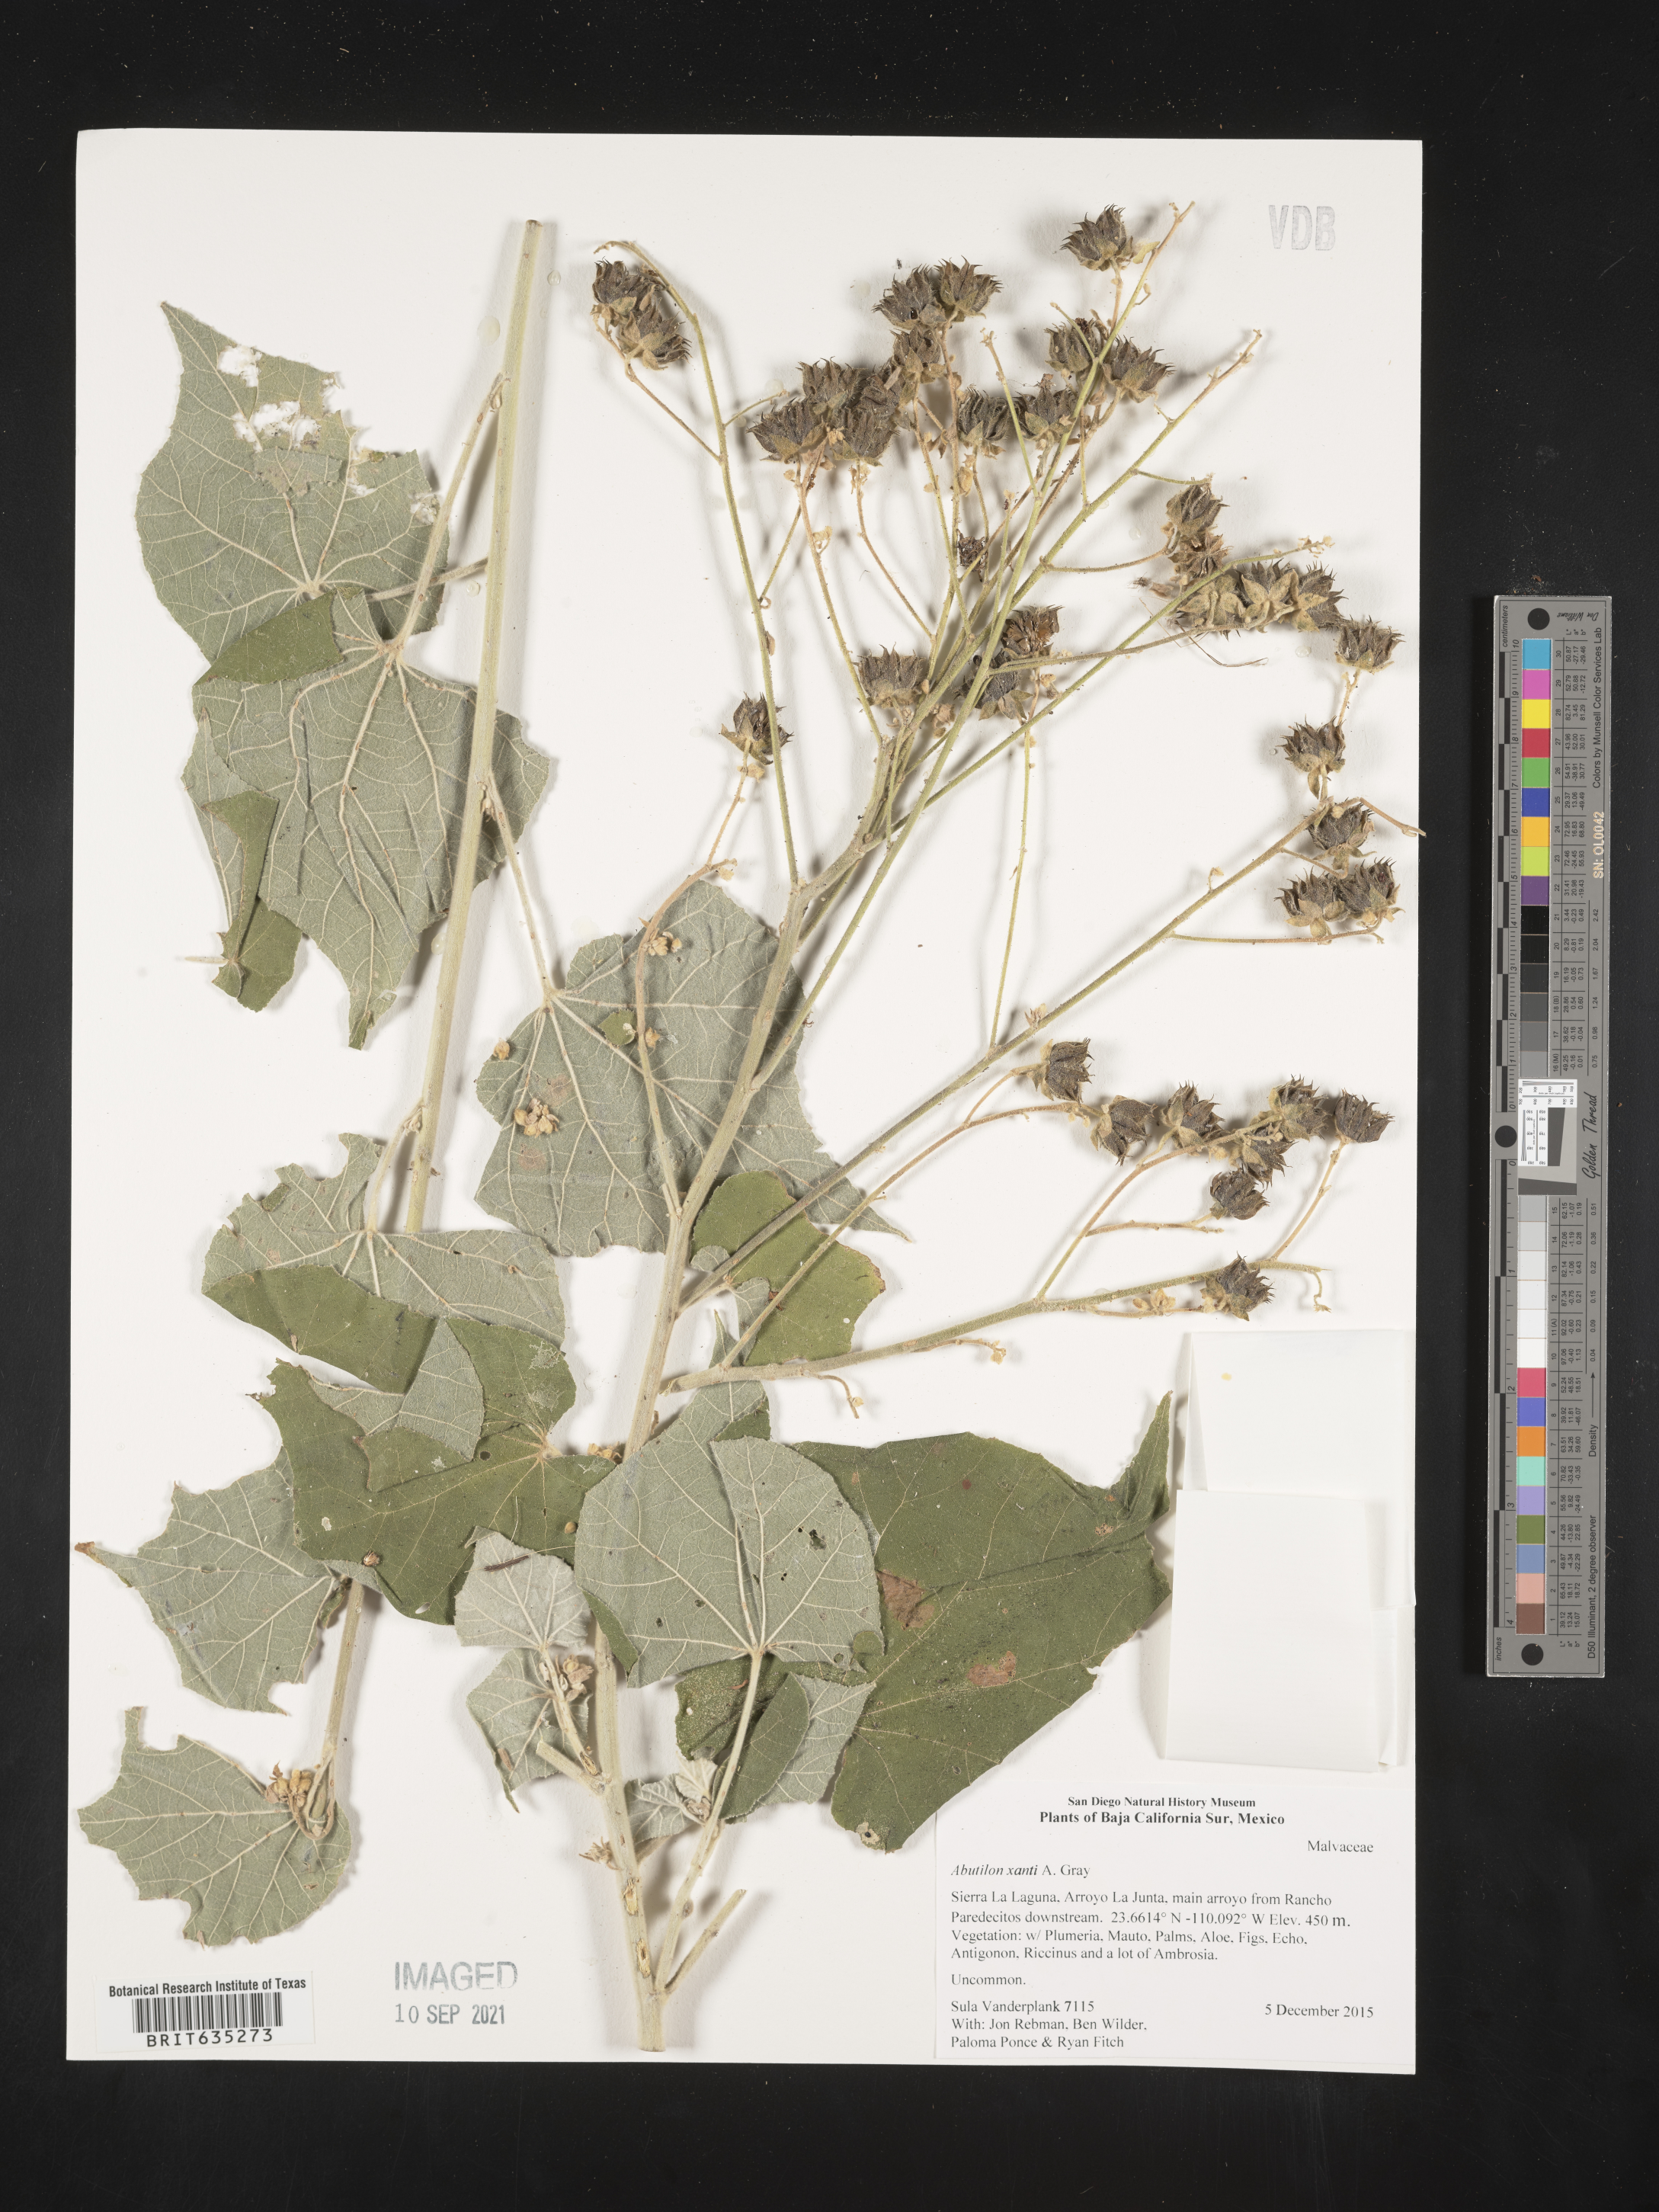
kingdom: Plantae
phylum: Tracheophyta
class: Magnoliopsida
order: Malvales
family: Malvaceae
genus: Abutilon
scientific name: Abutilon
